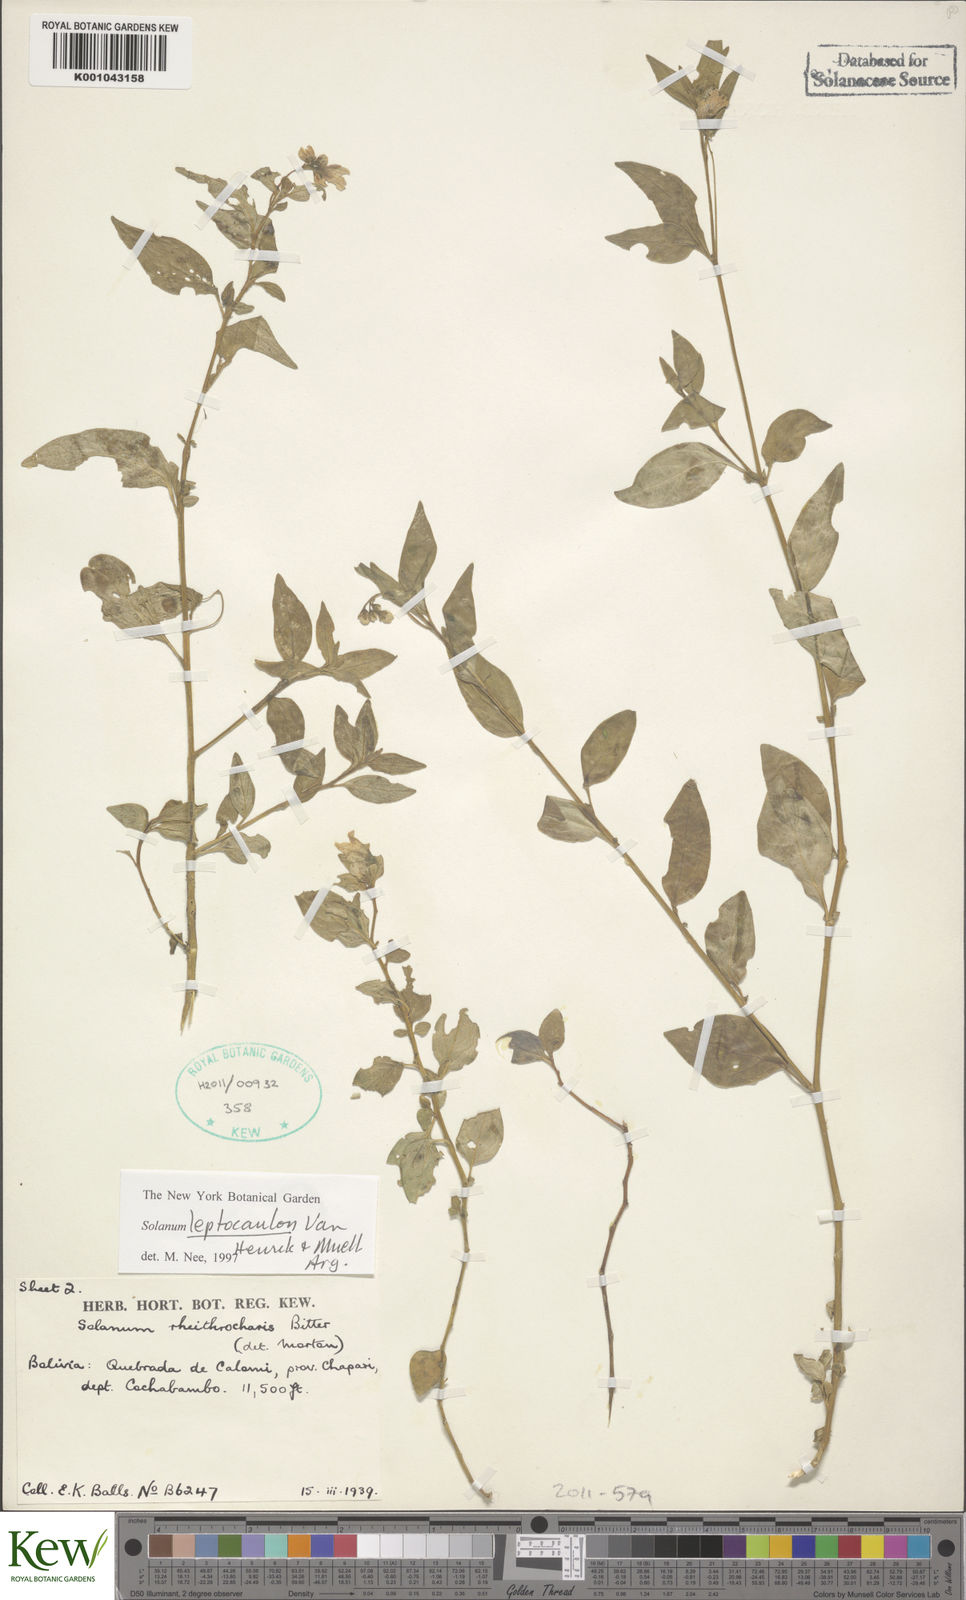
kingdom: Plantae
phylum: Tracheophyta
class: Magnoliopsida
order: Solanales
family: Solanaceae
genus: Solanum
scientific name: Solanum
